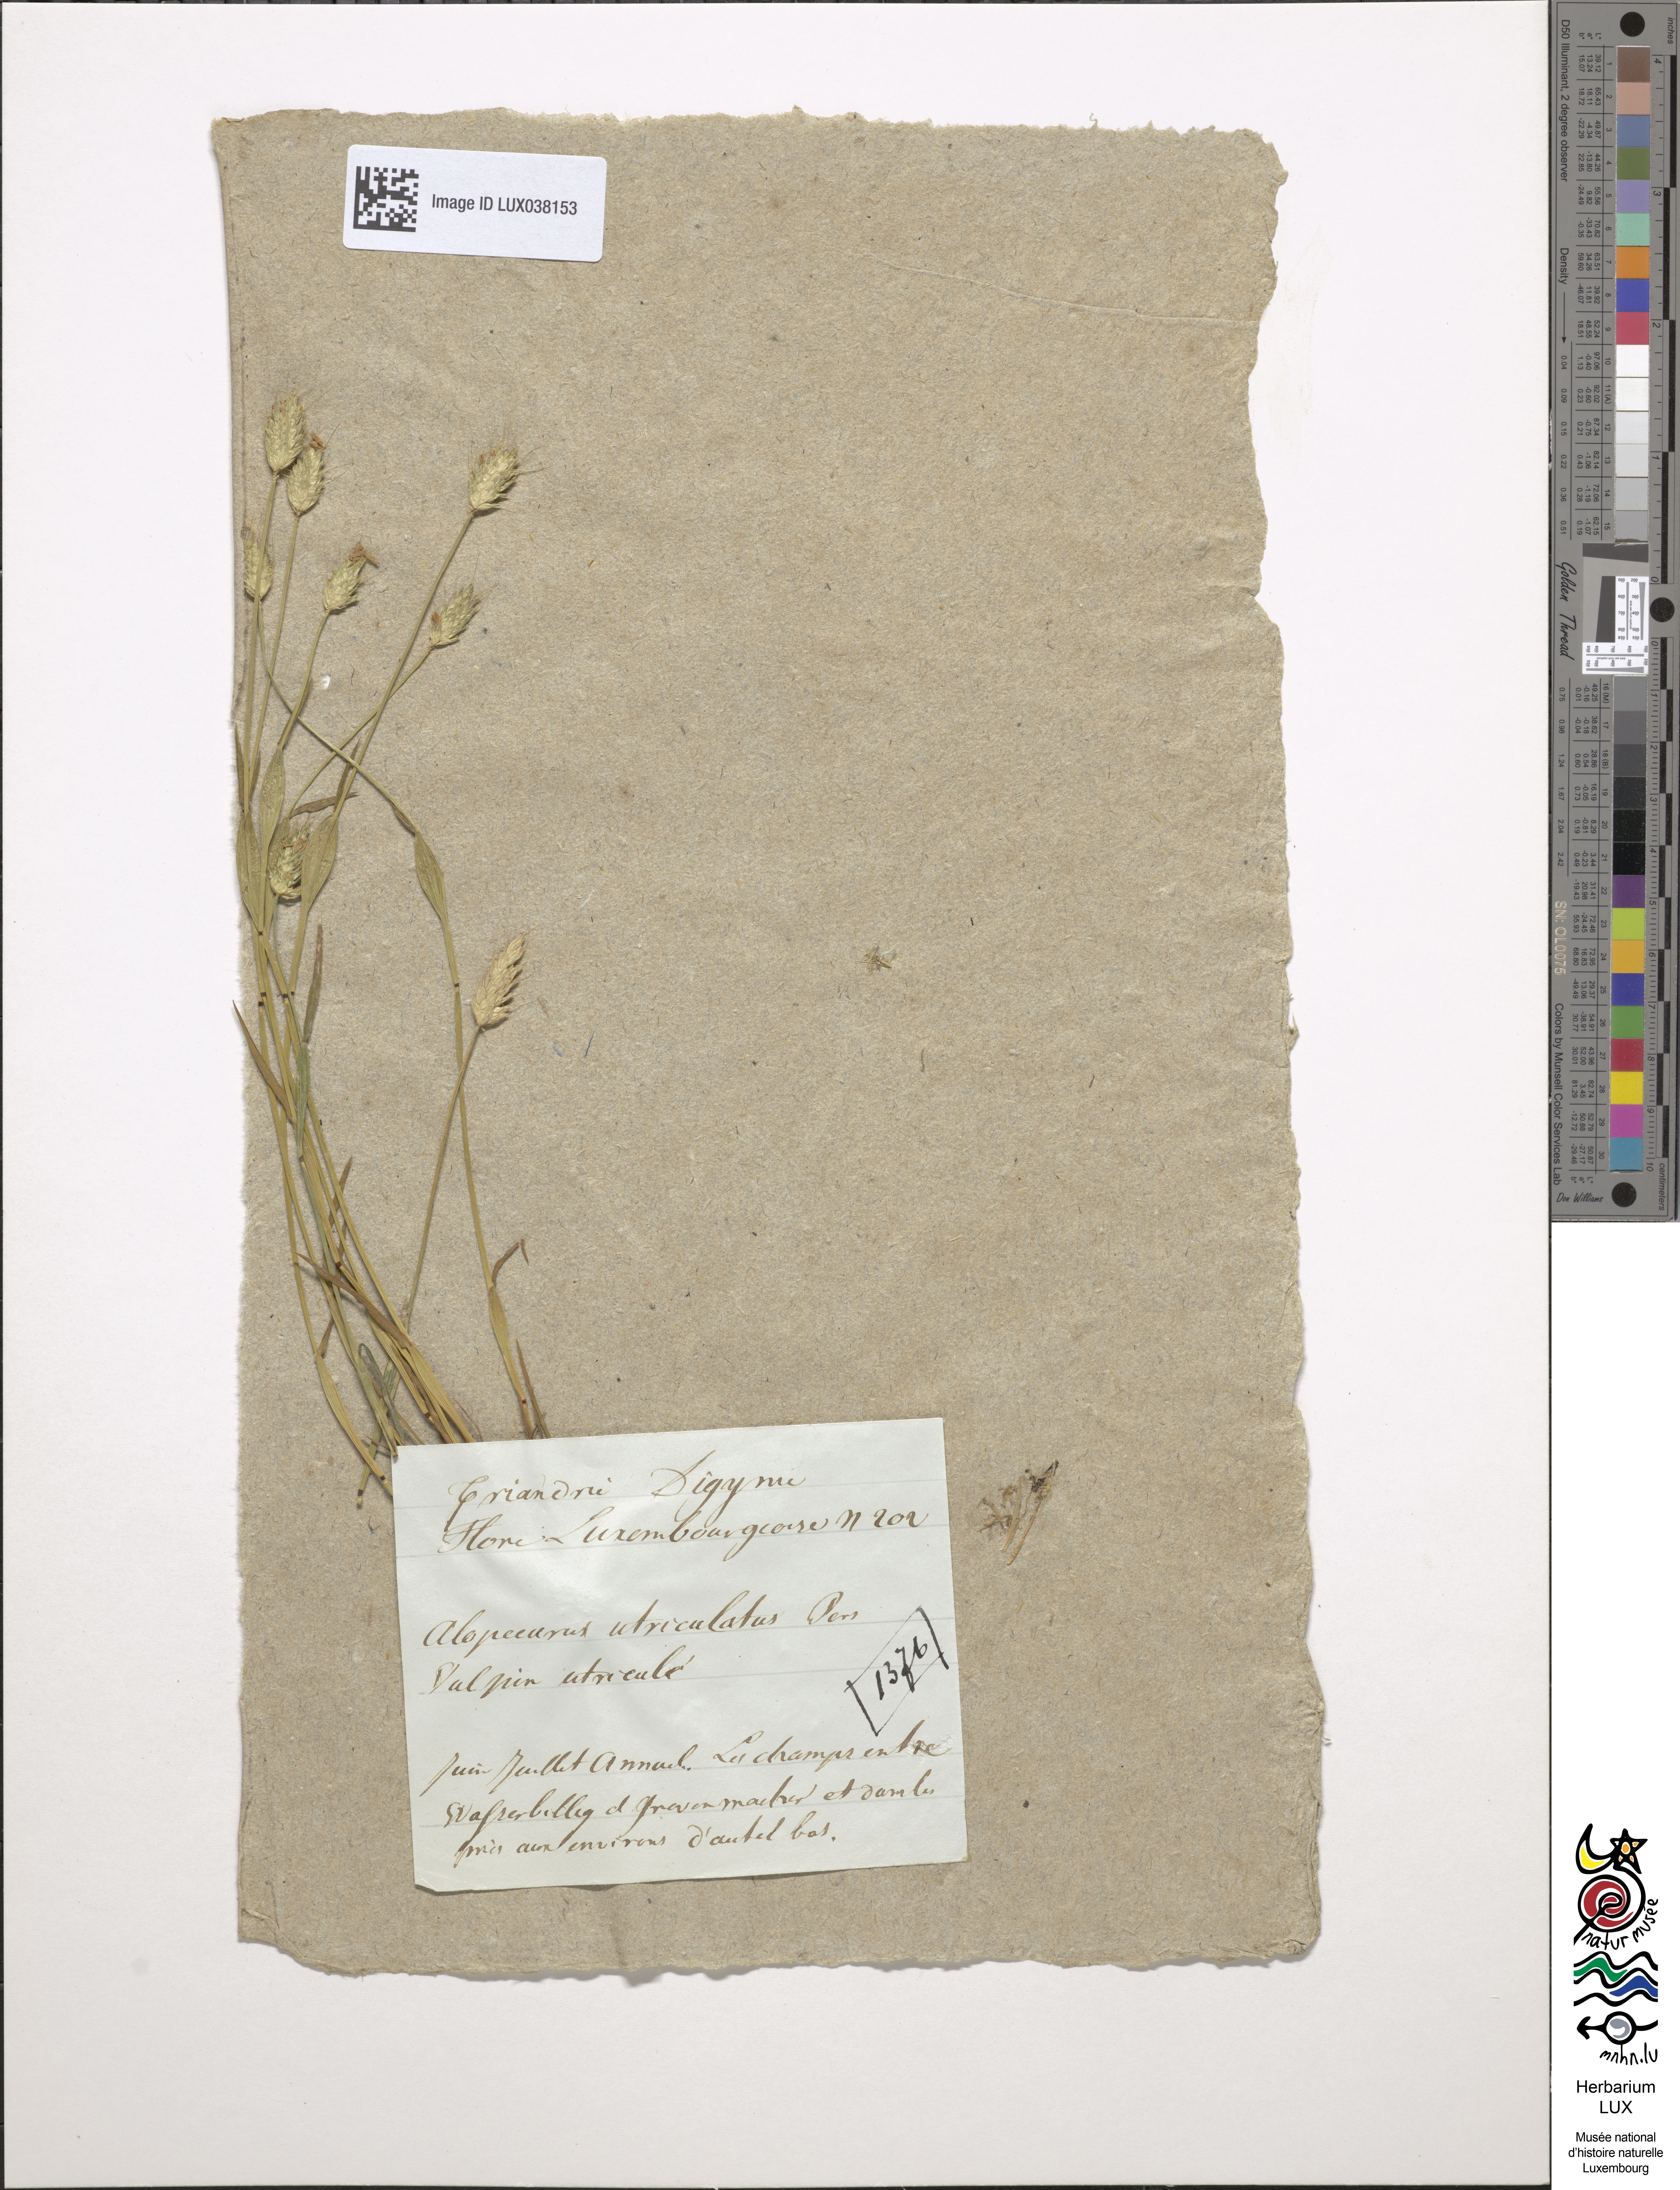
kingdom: Plantae
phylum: Tracheophyta
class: Liliopsida
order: Poales
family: Poaceae
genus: Alopecurus
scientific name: Alopecurus rendlei
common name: Rendle's meadow foxtail
